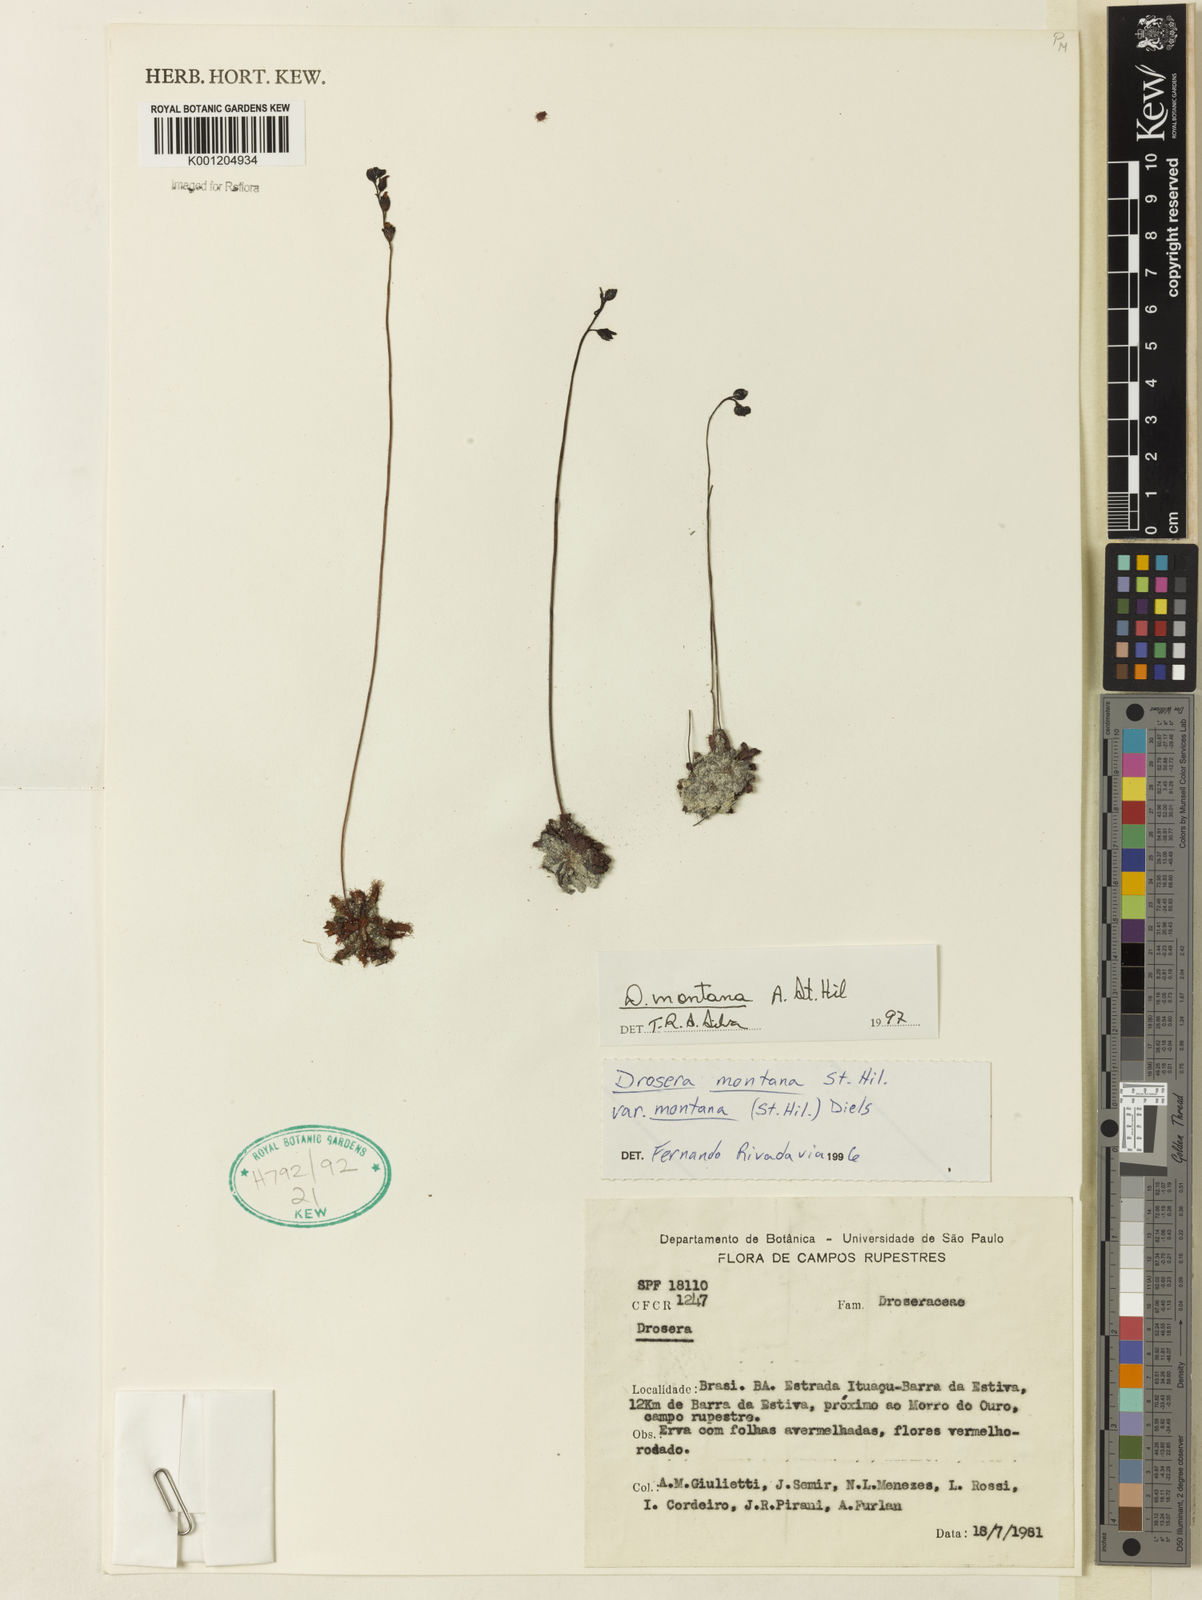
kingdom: Plantae
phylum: Tracheophyta
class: Magnoliopsida
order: Caryophyllales
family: Droseraceae
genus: Drosera
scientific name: Drosera montana
